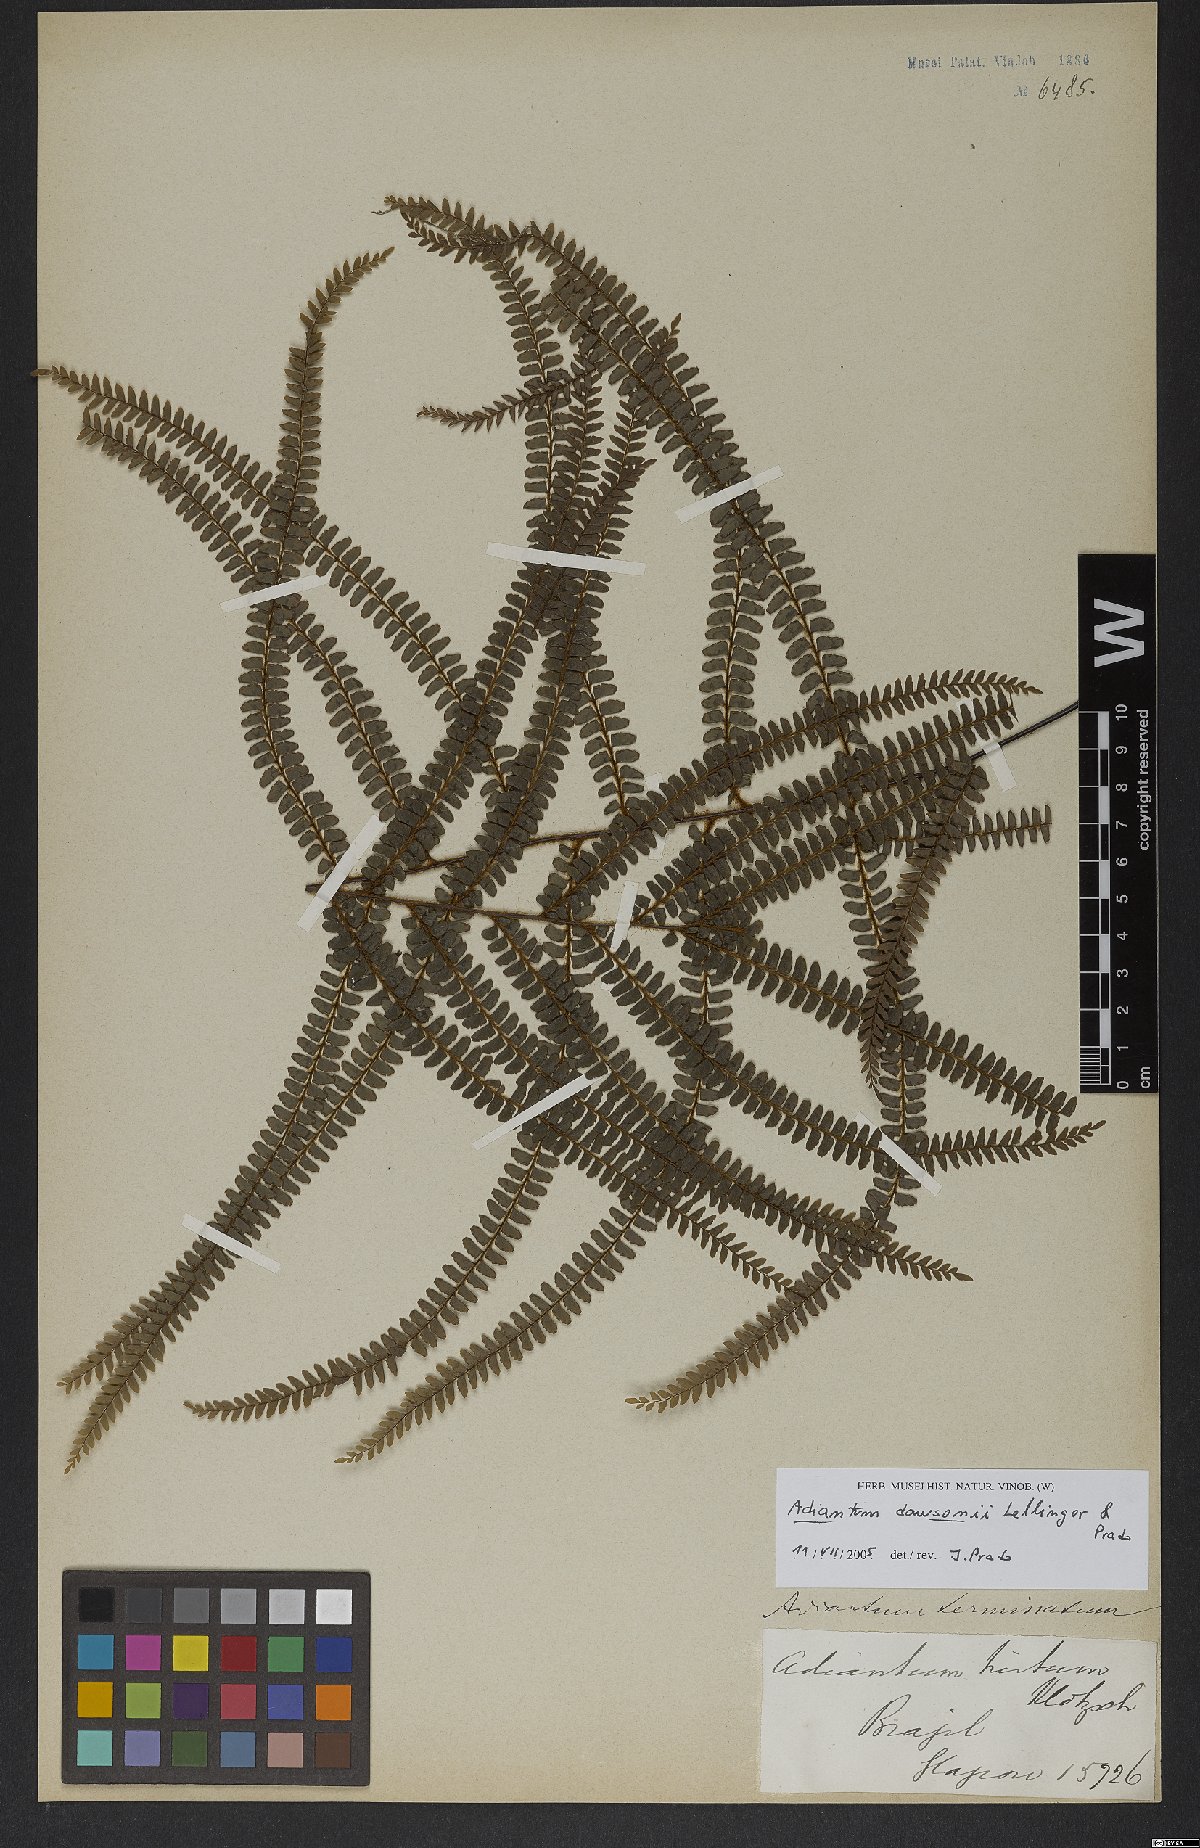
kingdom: Plantae
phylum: Tracheophyta
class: Polypodiopsida
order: Polypodiales
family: Pteridaceae
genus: Adiantum
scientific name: Adiantum dawsonii
